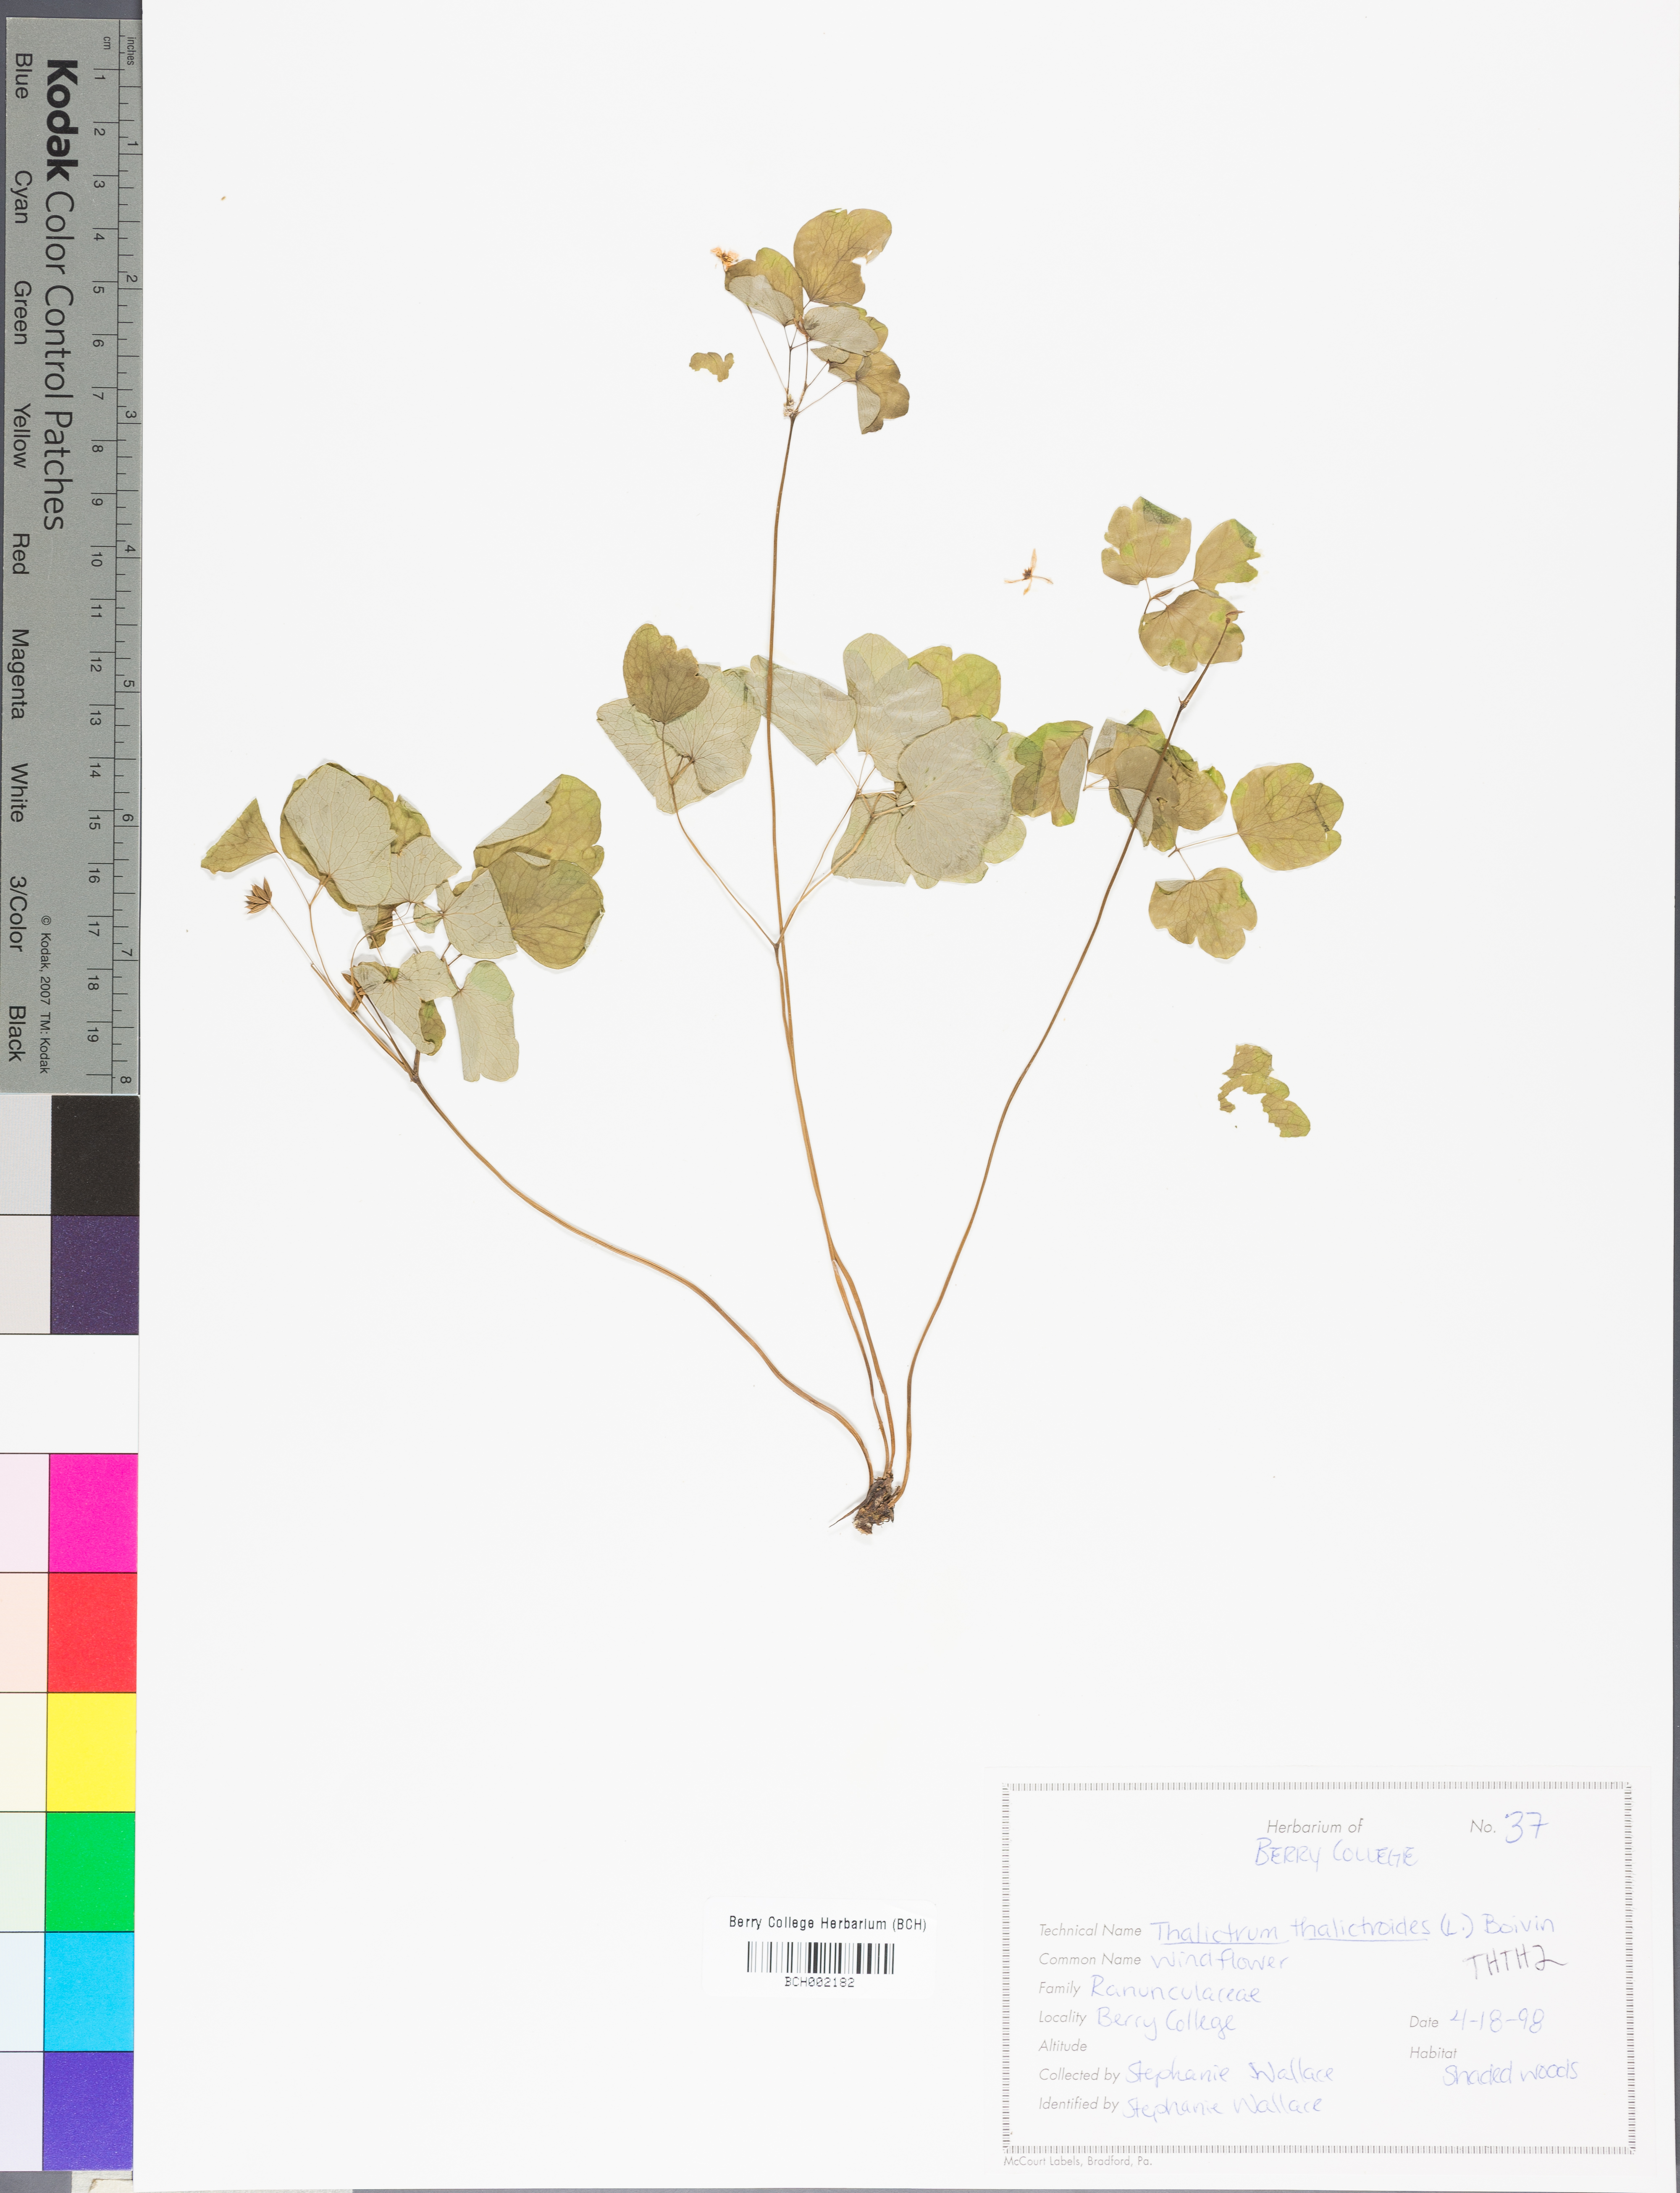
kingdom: Plantae
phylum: Tracheophyta
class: Magnoliopsida
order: Ranunculales
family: Ranunculaceae
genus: Thalictrum
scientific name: Thalictrum thalictroides
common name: Rue-anemone
